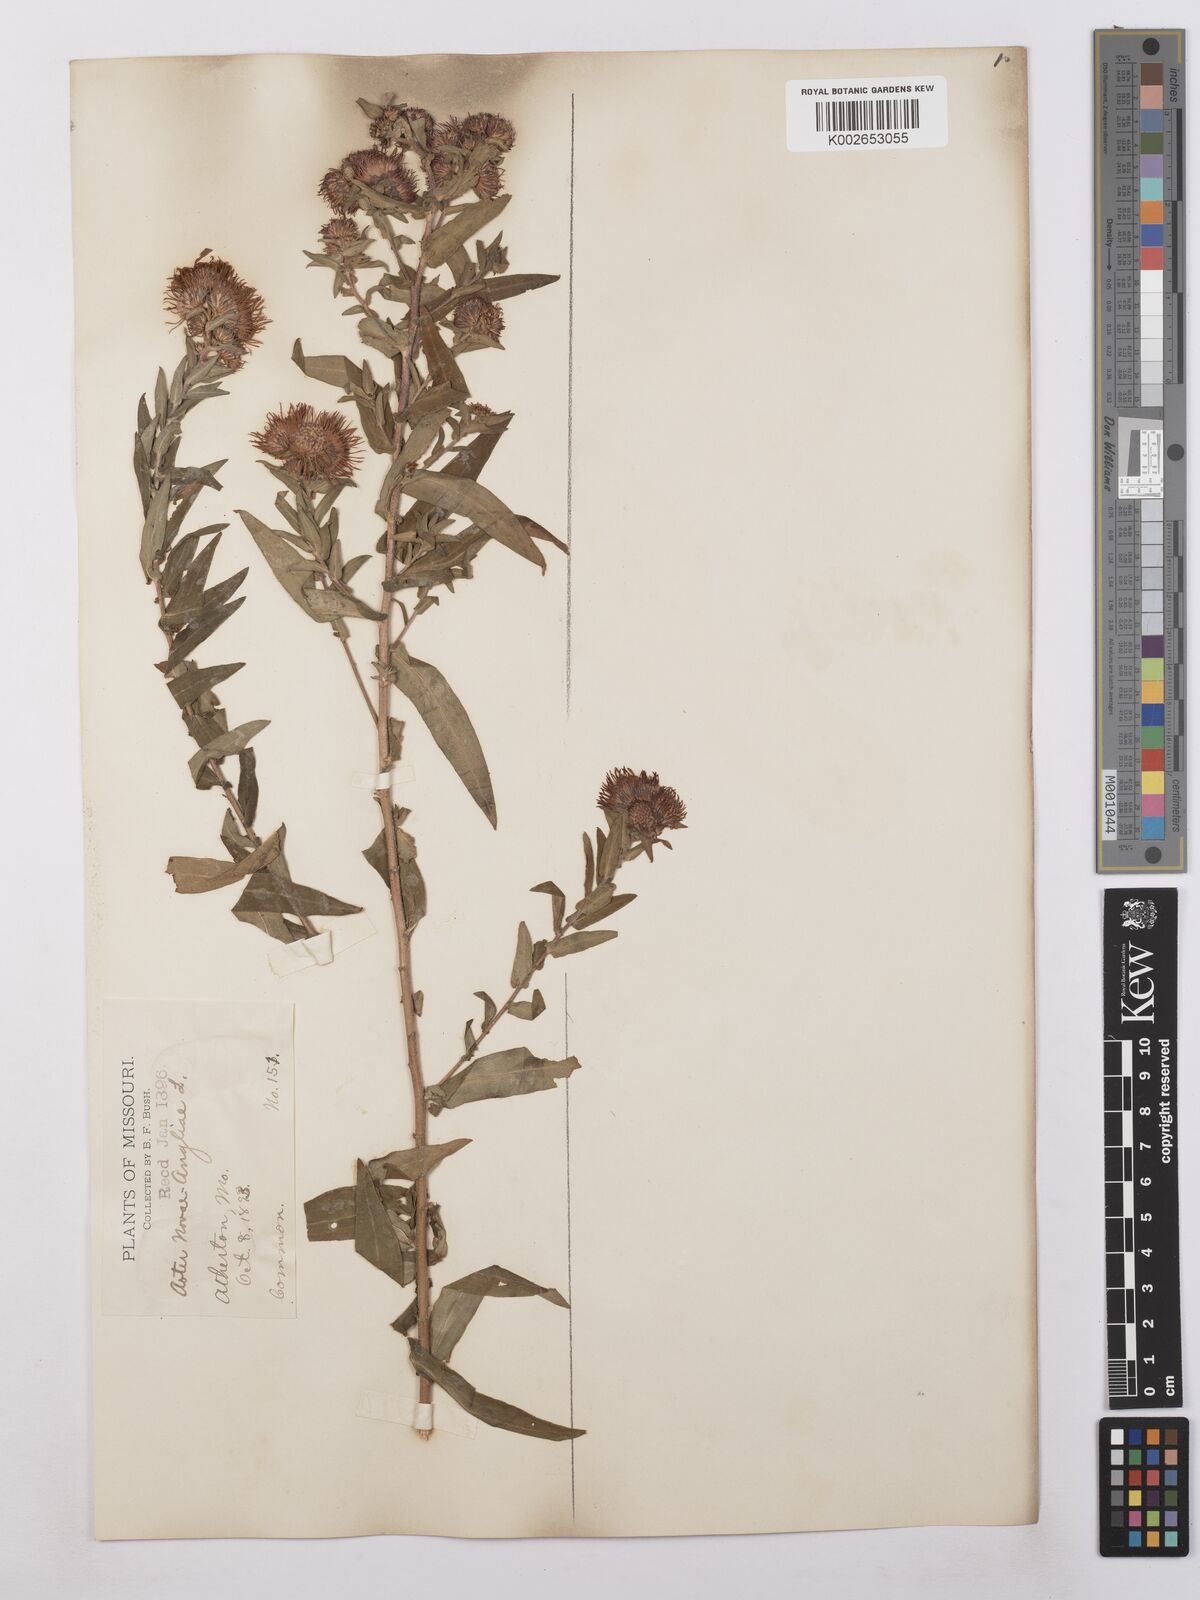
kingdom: Plantae
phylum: Tracheophyta
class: Magnoliopsida
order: Asterales
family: Asteraceae
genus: Symphyotrichum
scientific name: Symphyotrichum novae-angliae
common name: Michaelmas daisy
